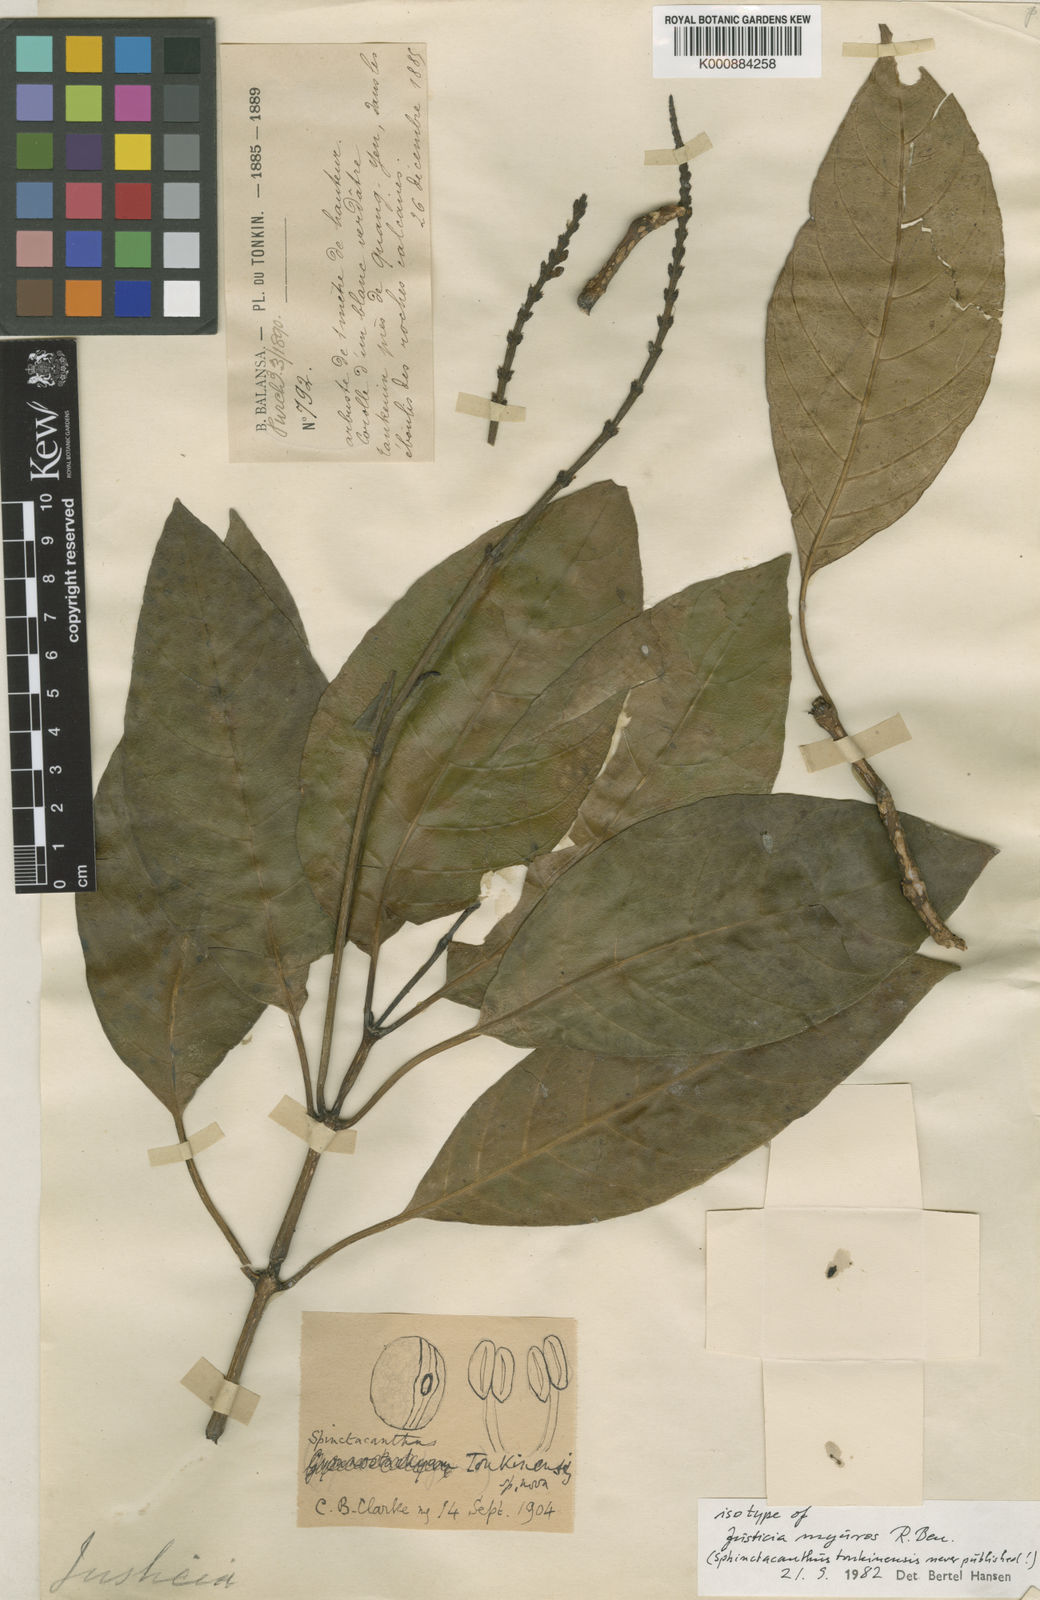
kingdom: Plantae
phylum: Tracheophyta
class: Magnoliopsida
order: Lamiales
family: Acanthaceae
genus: Justicia
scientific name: Justicia
